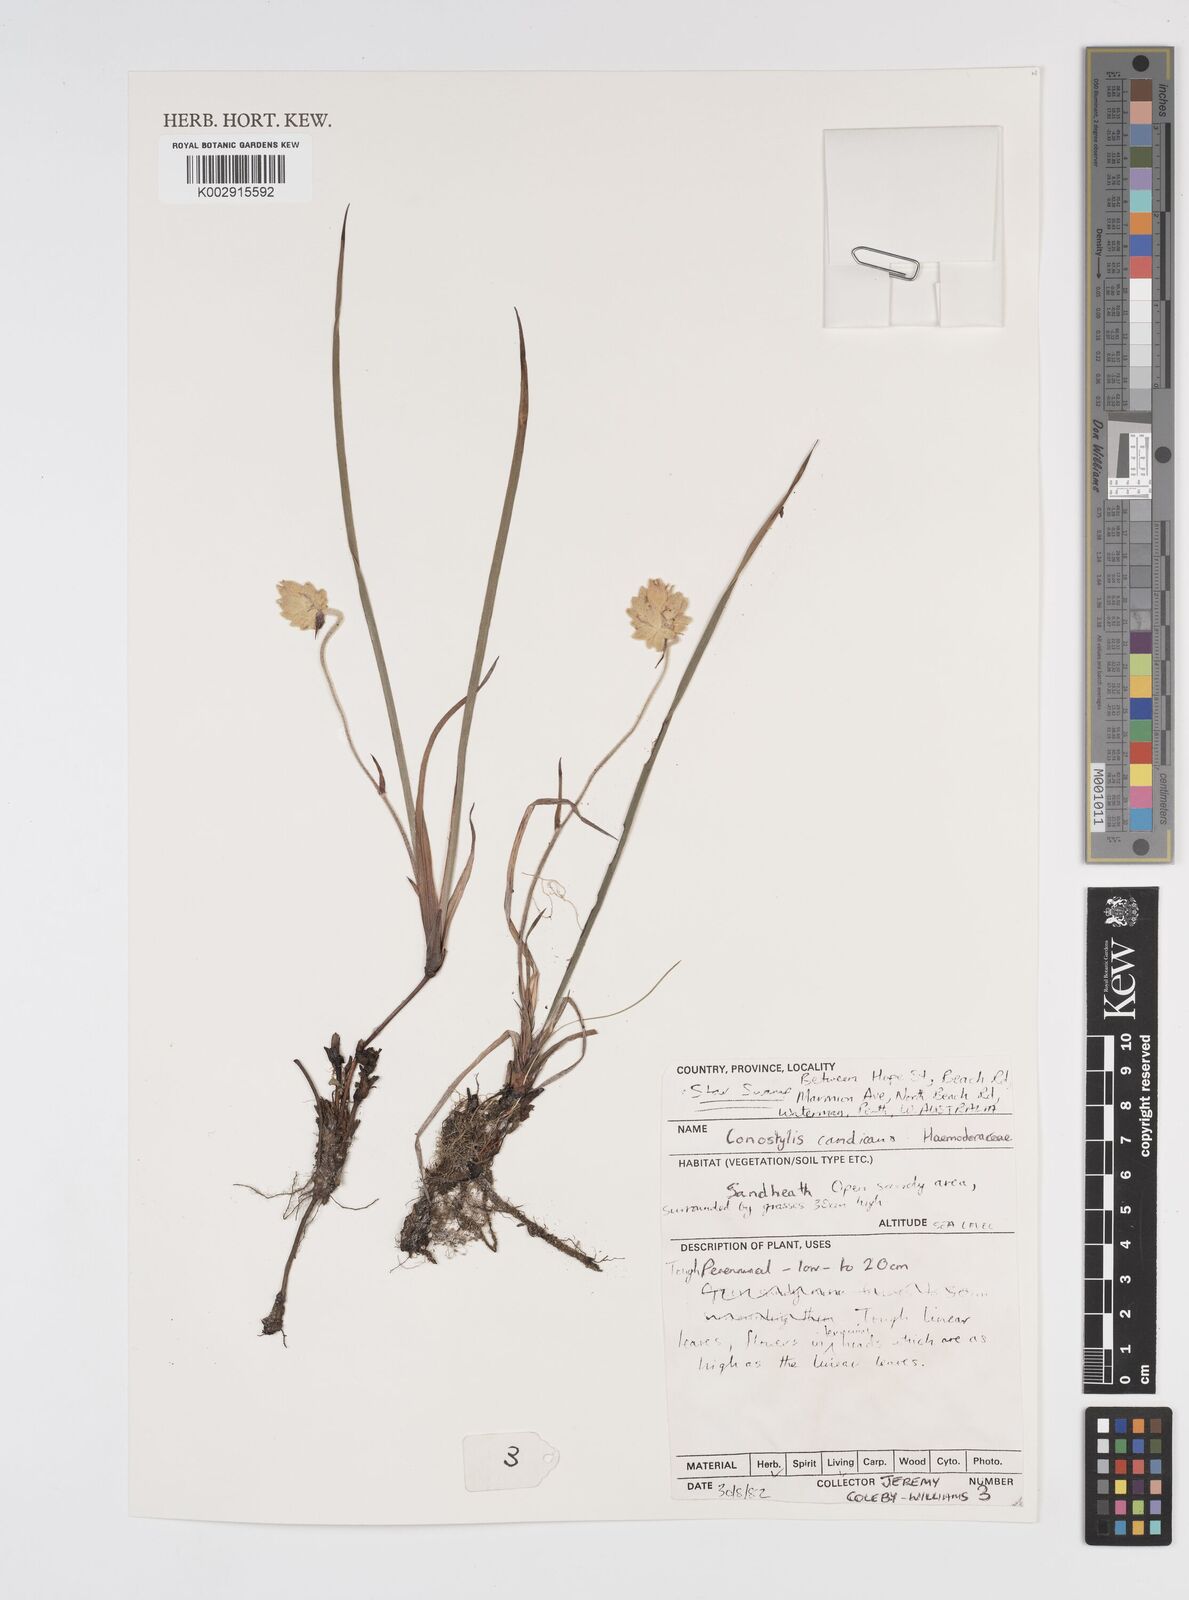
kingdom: Plantae
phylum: Tracheophyta
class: Liliopsida
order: Commelinales
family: Haemodoraceae
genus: Conostylis
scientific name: Conostylis candicans
